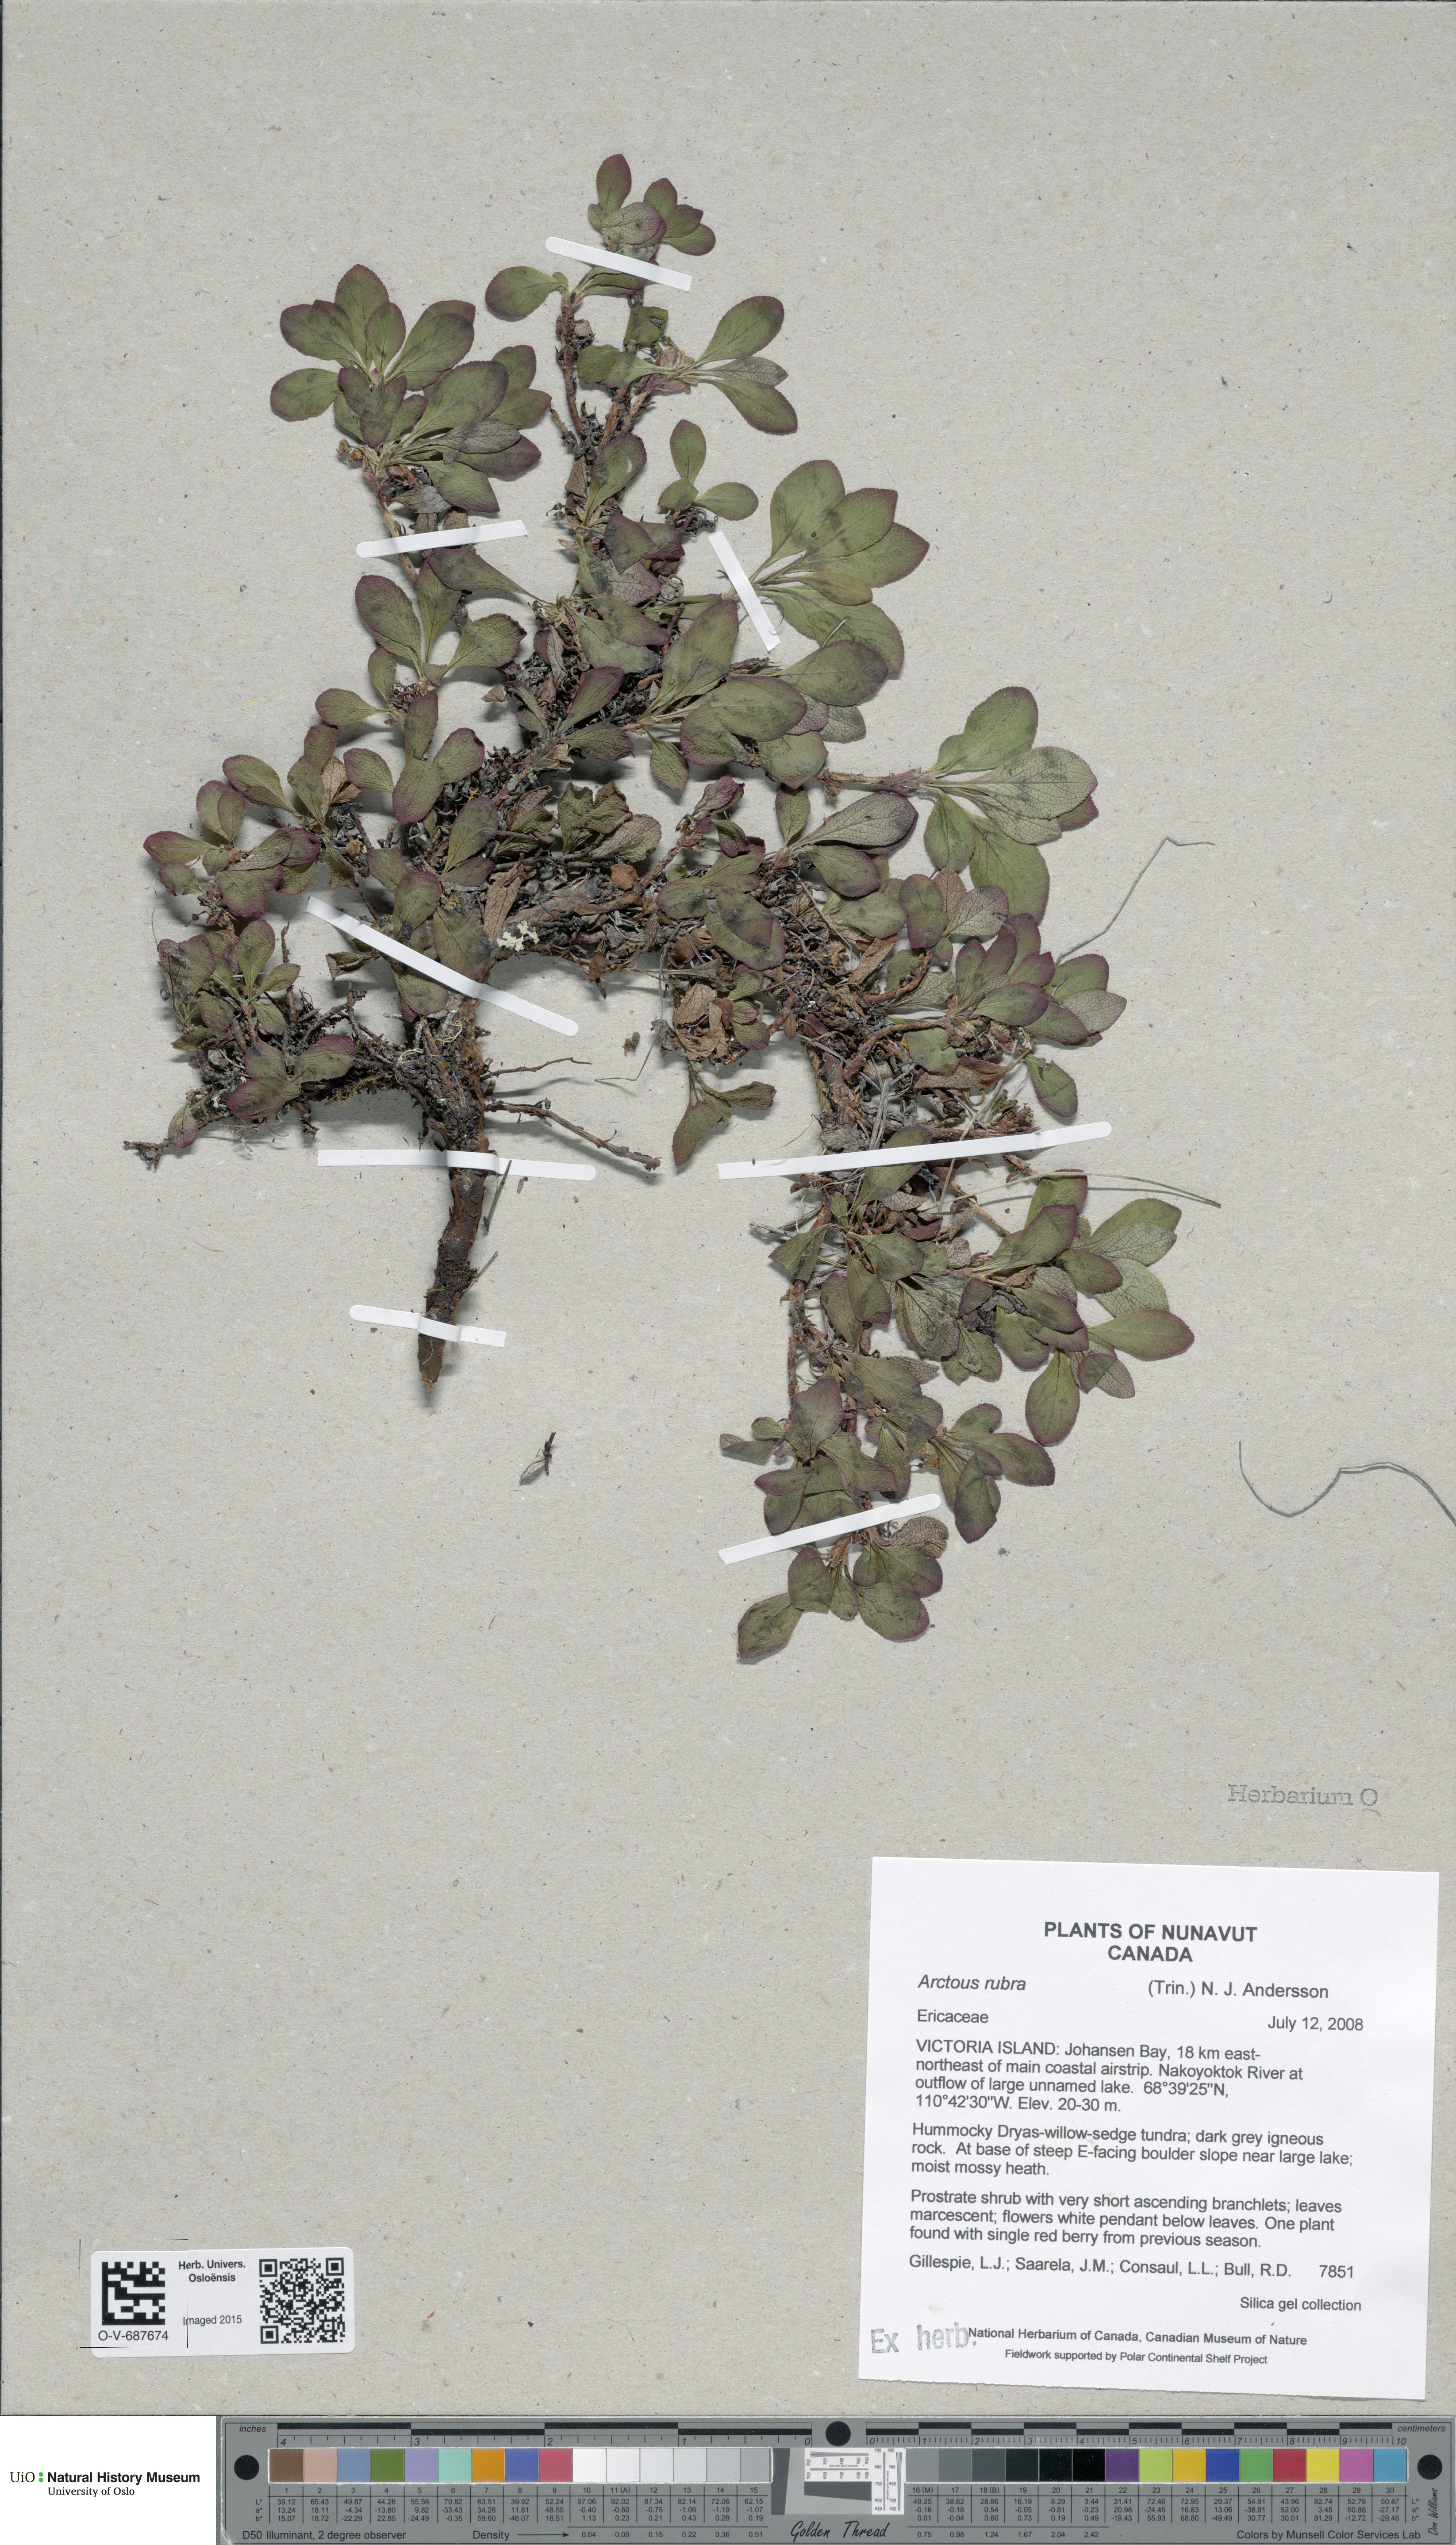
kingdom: Plantae
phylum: Tracheophyta
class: Magnoliopsida
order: Ericales
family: Ericaceae
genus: Arctostaphylos
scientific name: Arctostaphylos rubra
